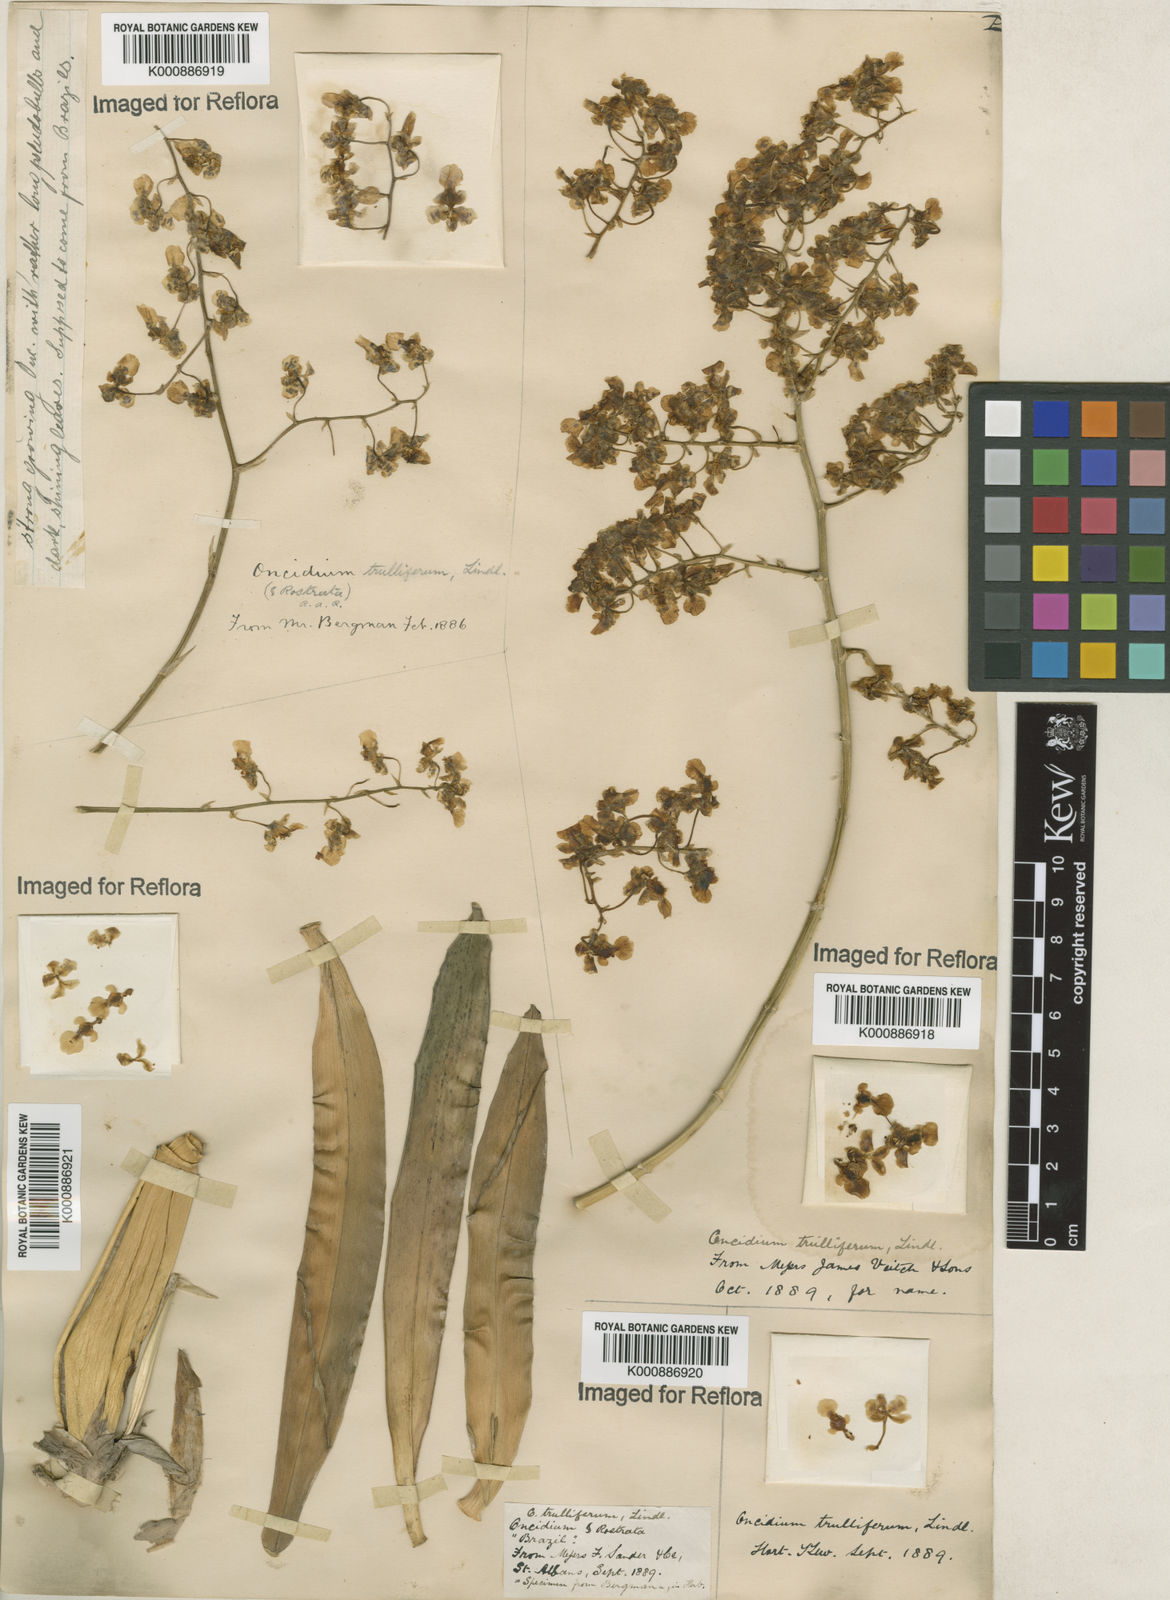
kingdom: Plantae
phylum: Tracheophyta
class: Liliopsida
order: Asparagales
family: Orchidaceae
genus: Gomesa
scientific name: Gomesa venusta
